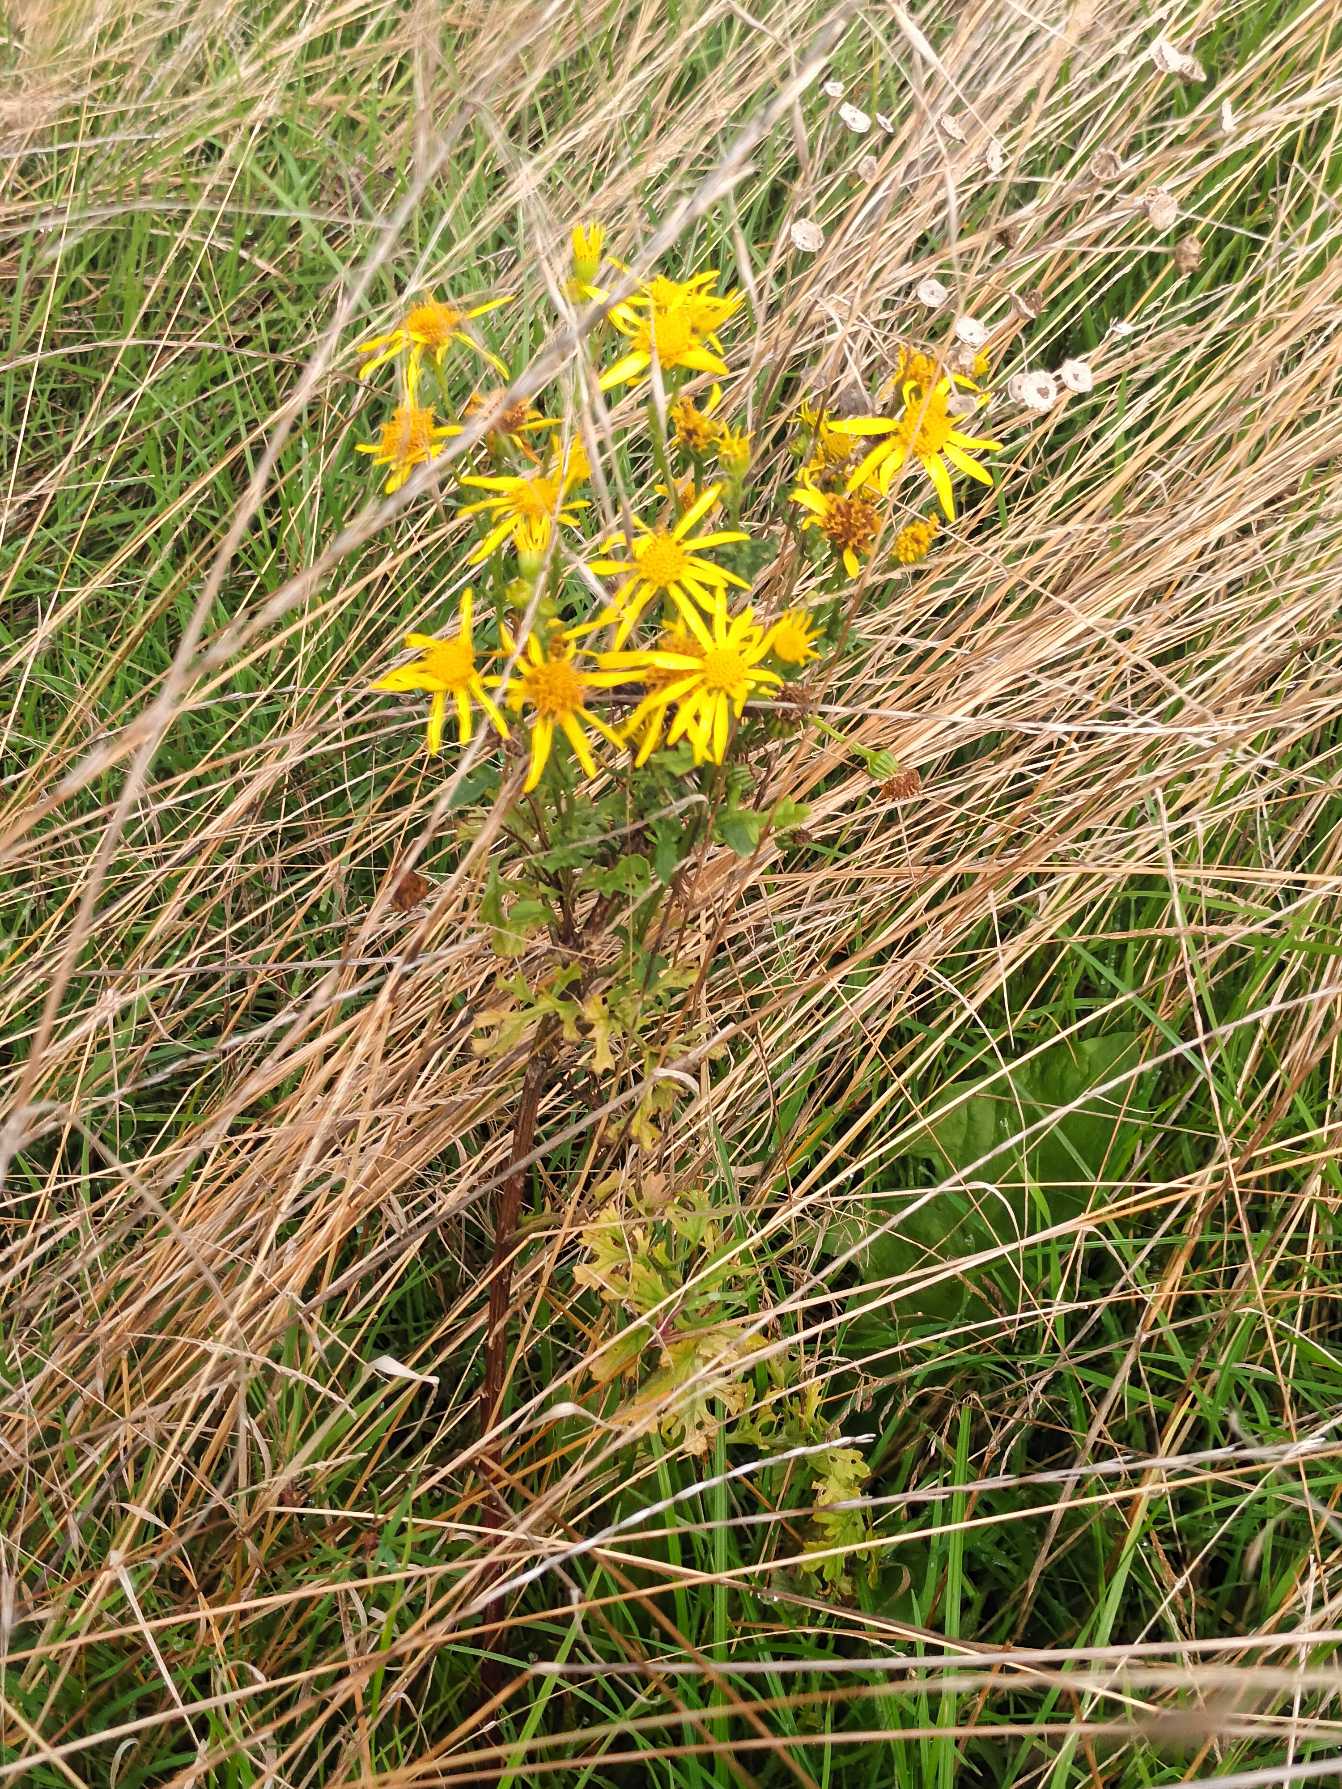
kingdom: Plantae
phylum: Tracheophyta
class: Magnoliopsida
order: Asterales
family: Asteraceae
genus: Jacobaea
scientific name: Jacobaea vulgaris
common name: Eng-brandbæger
